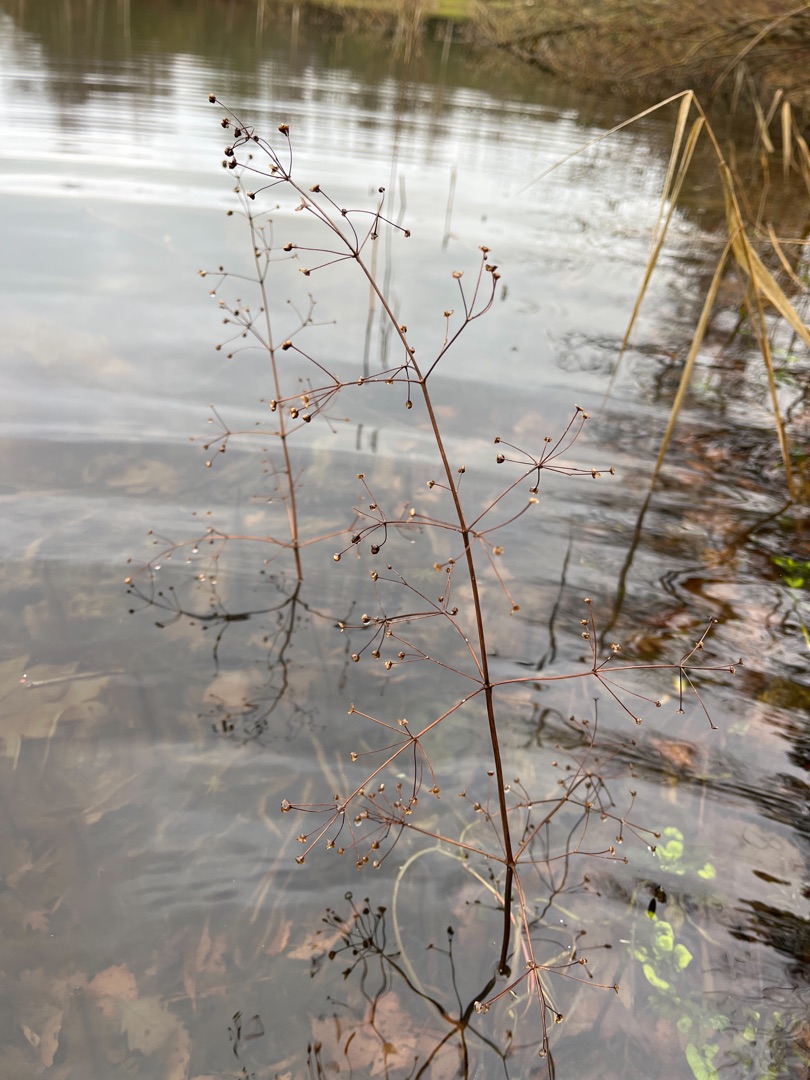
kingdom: Plantae
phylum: Tracheophyta
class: Liliopsida
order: Alismatales
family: Alismataceae
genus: Alisma
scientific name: Alisma plantago-aquatica
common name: Vejbred-skeblad
